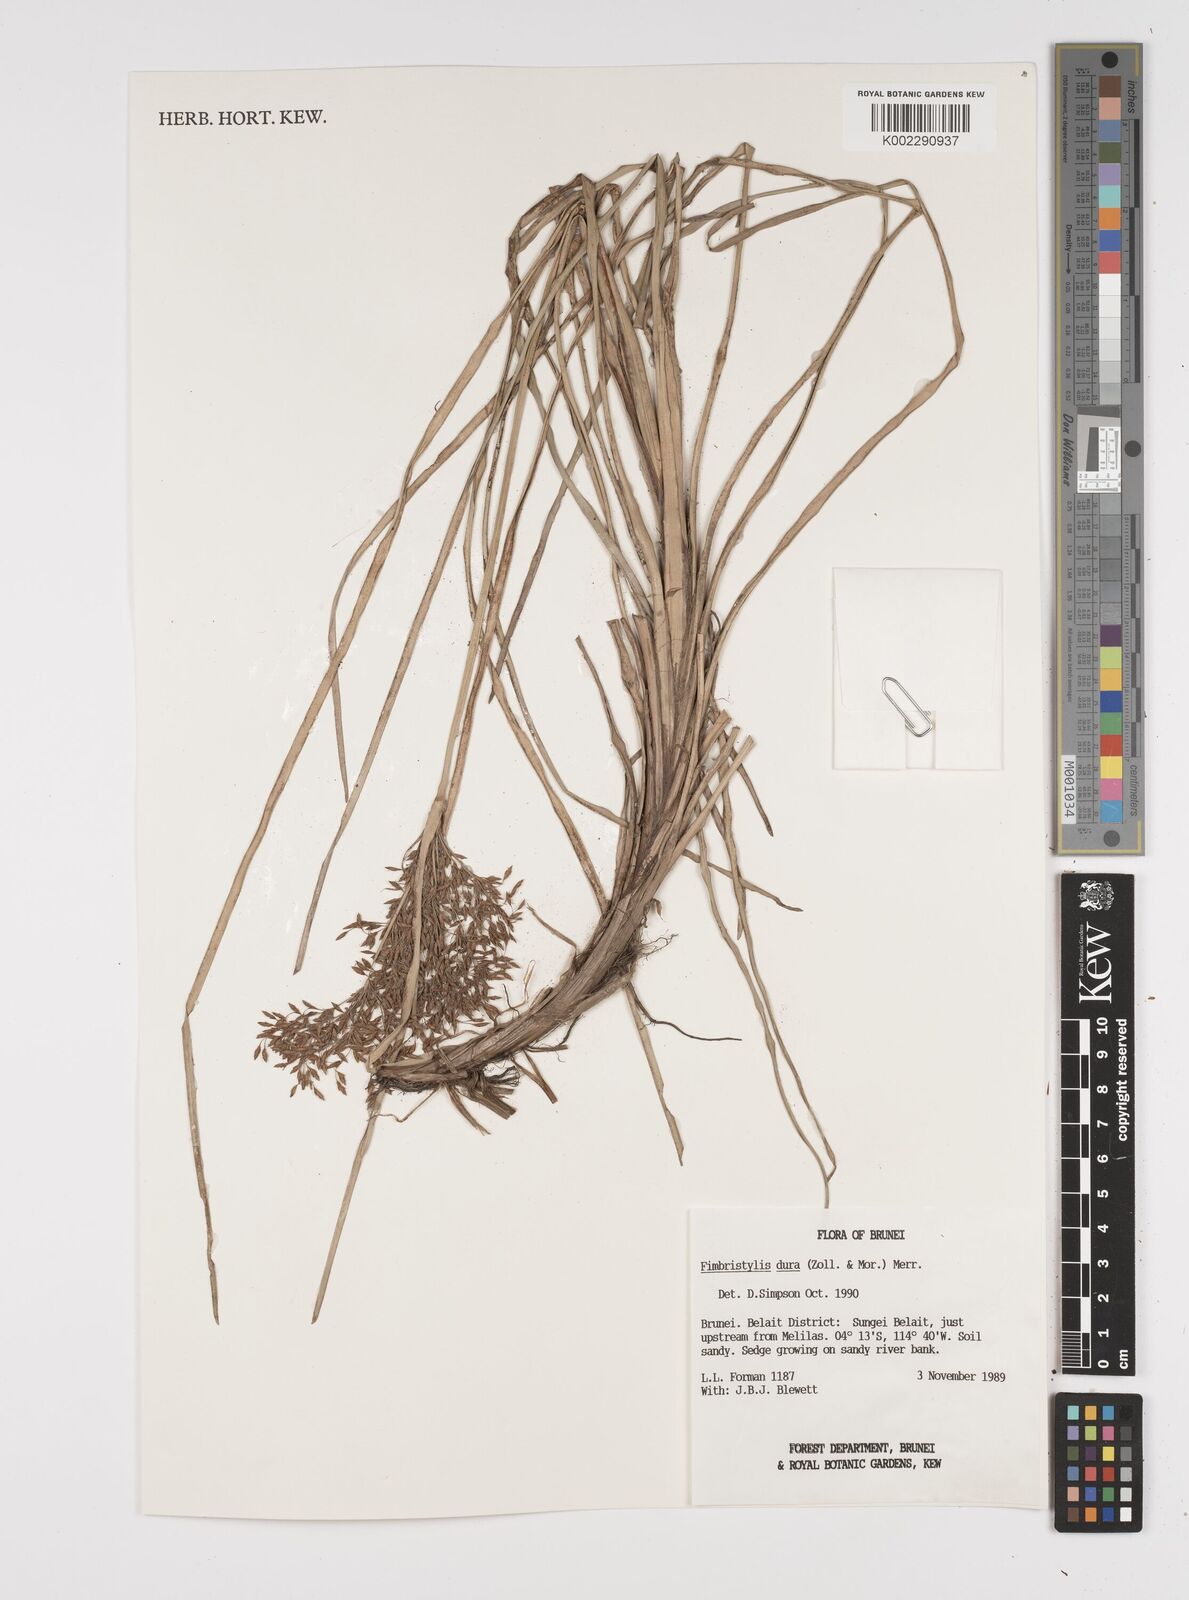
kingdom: Plantae
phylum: Tracheophyta
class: Liliopsida
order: Poales
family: Cyperaceae
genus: Fimbristylis
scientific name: Fimbristylis dura
